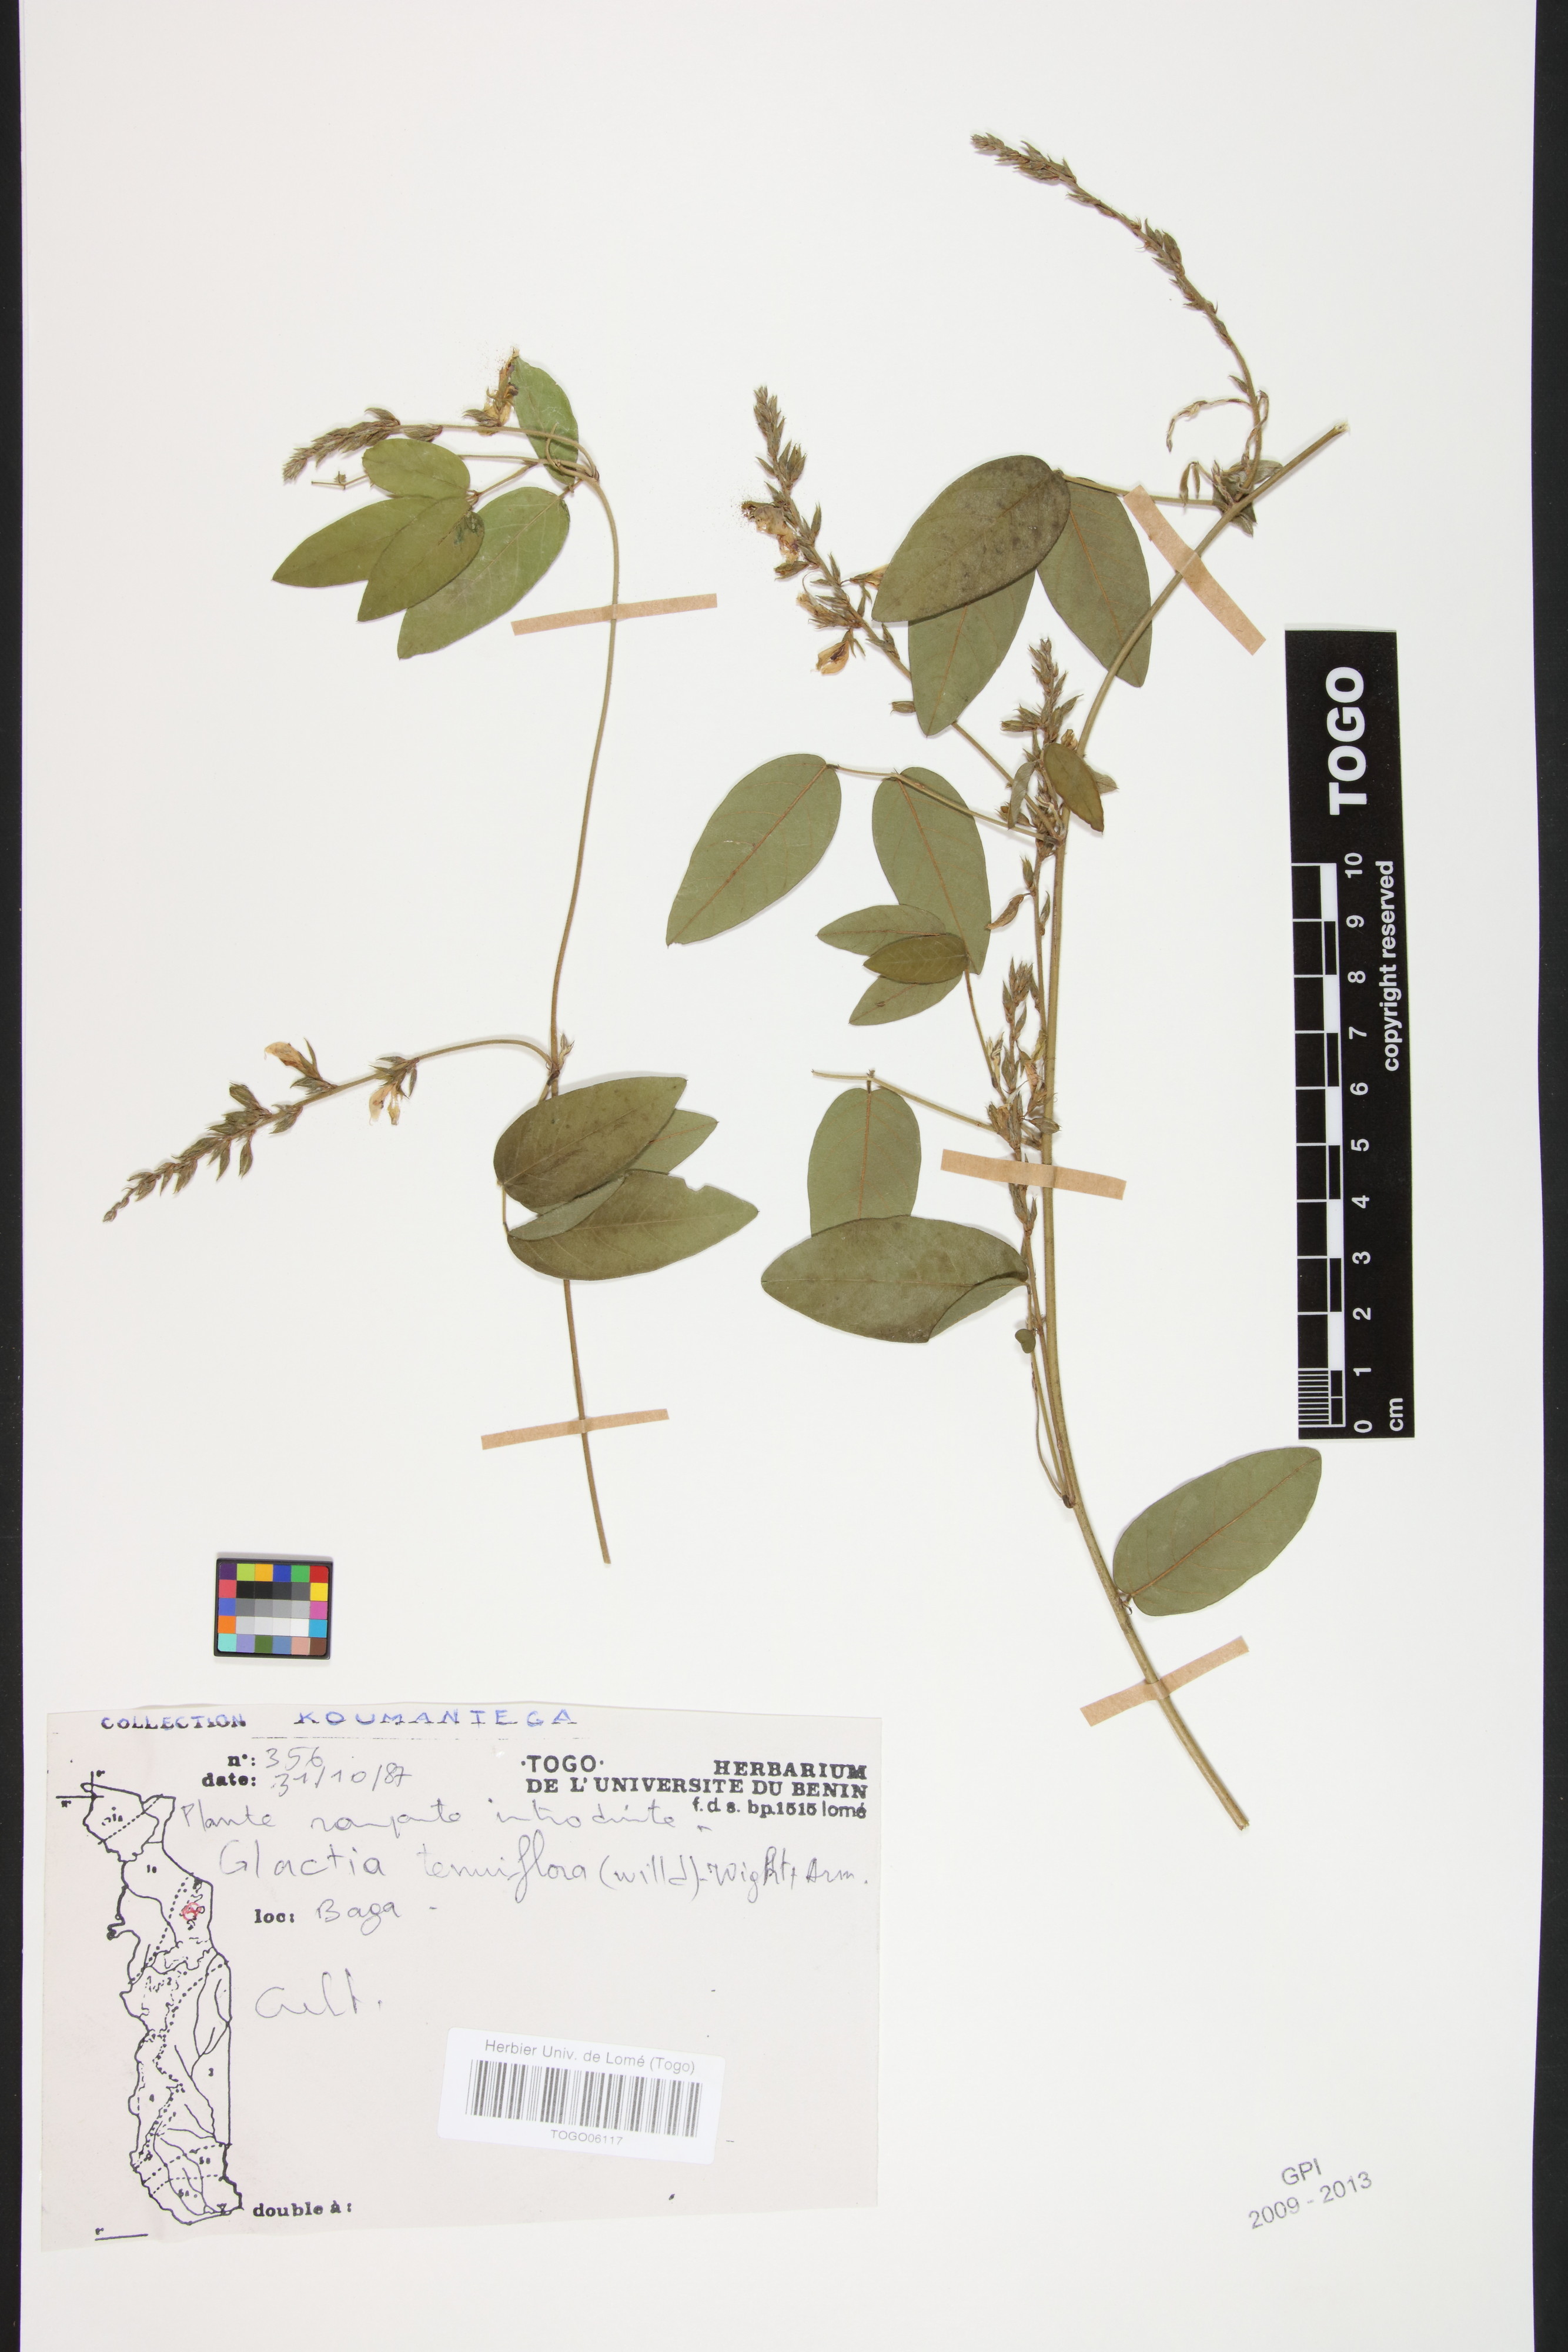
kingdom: Plantae
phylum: Tracheophyta
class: Magnoliopsida
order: Fabales
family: Fabaceae
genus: Galactia
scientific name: Galactia striata
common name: Florida hammock milkpea
